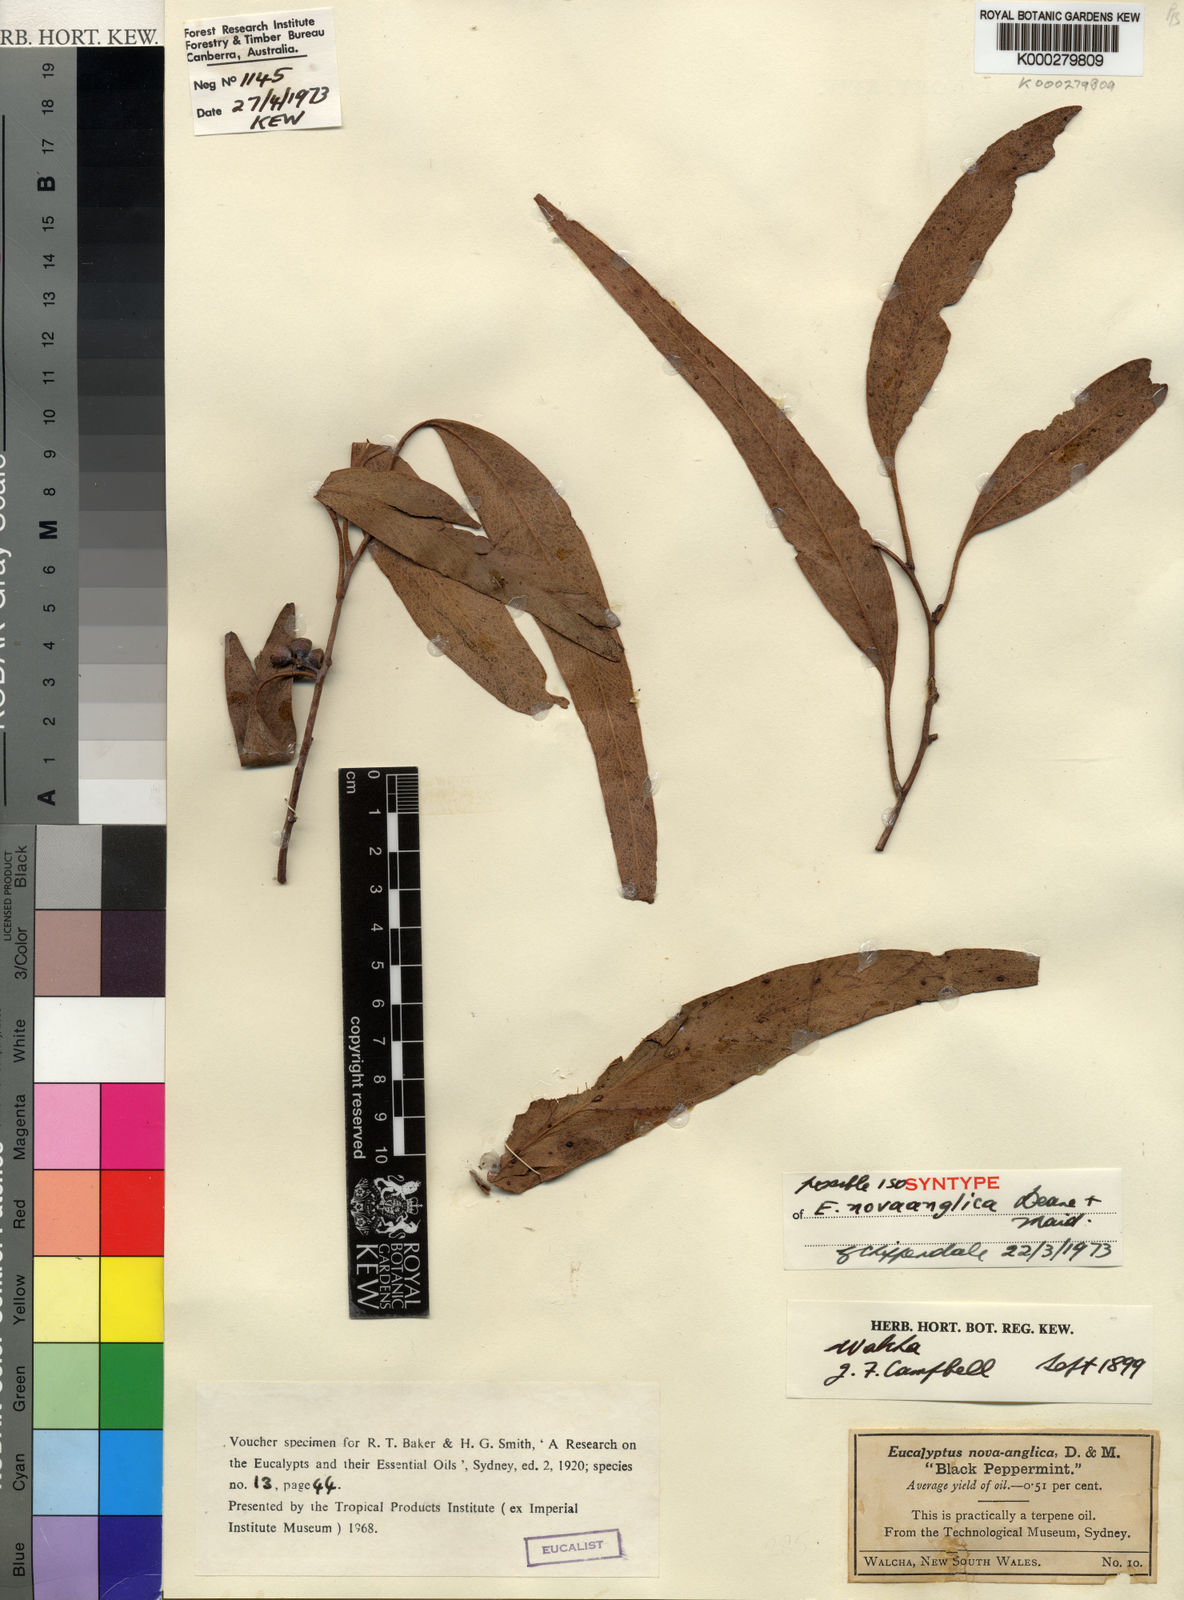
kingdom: Plantae
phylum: Tracheophyta
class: Magnoliopsida
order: Myrtales
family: Myrtaceae
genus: Eucalyptus
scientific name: Eucalyptus nova-anglica
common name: Black peppermint
